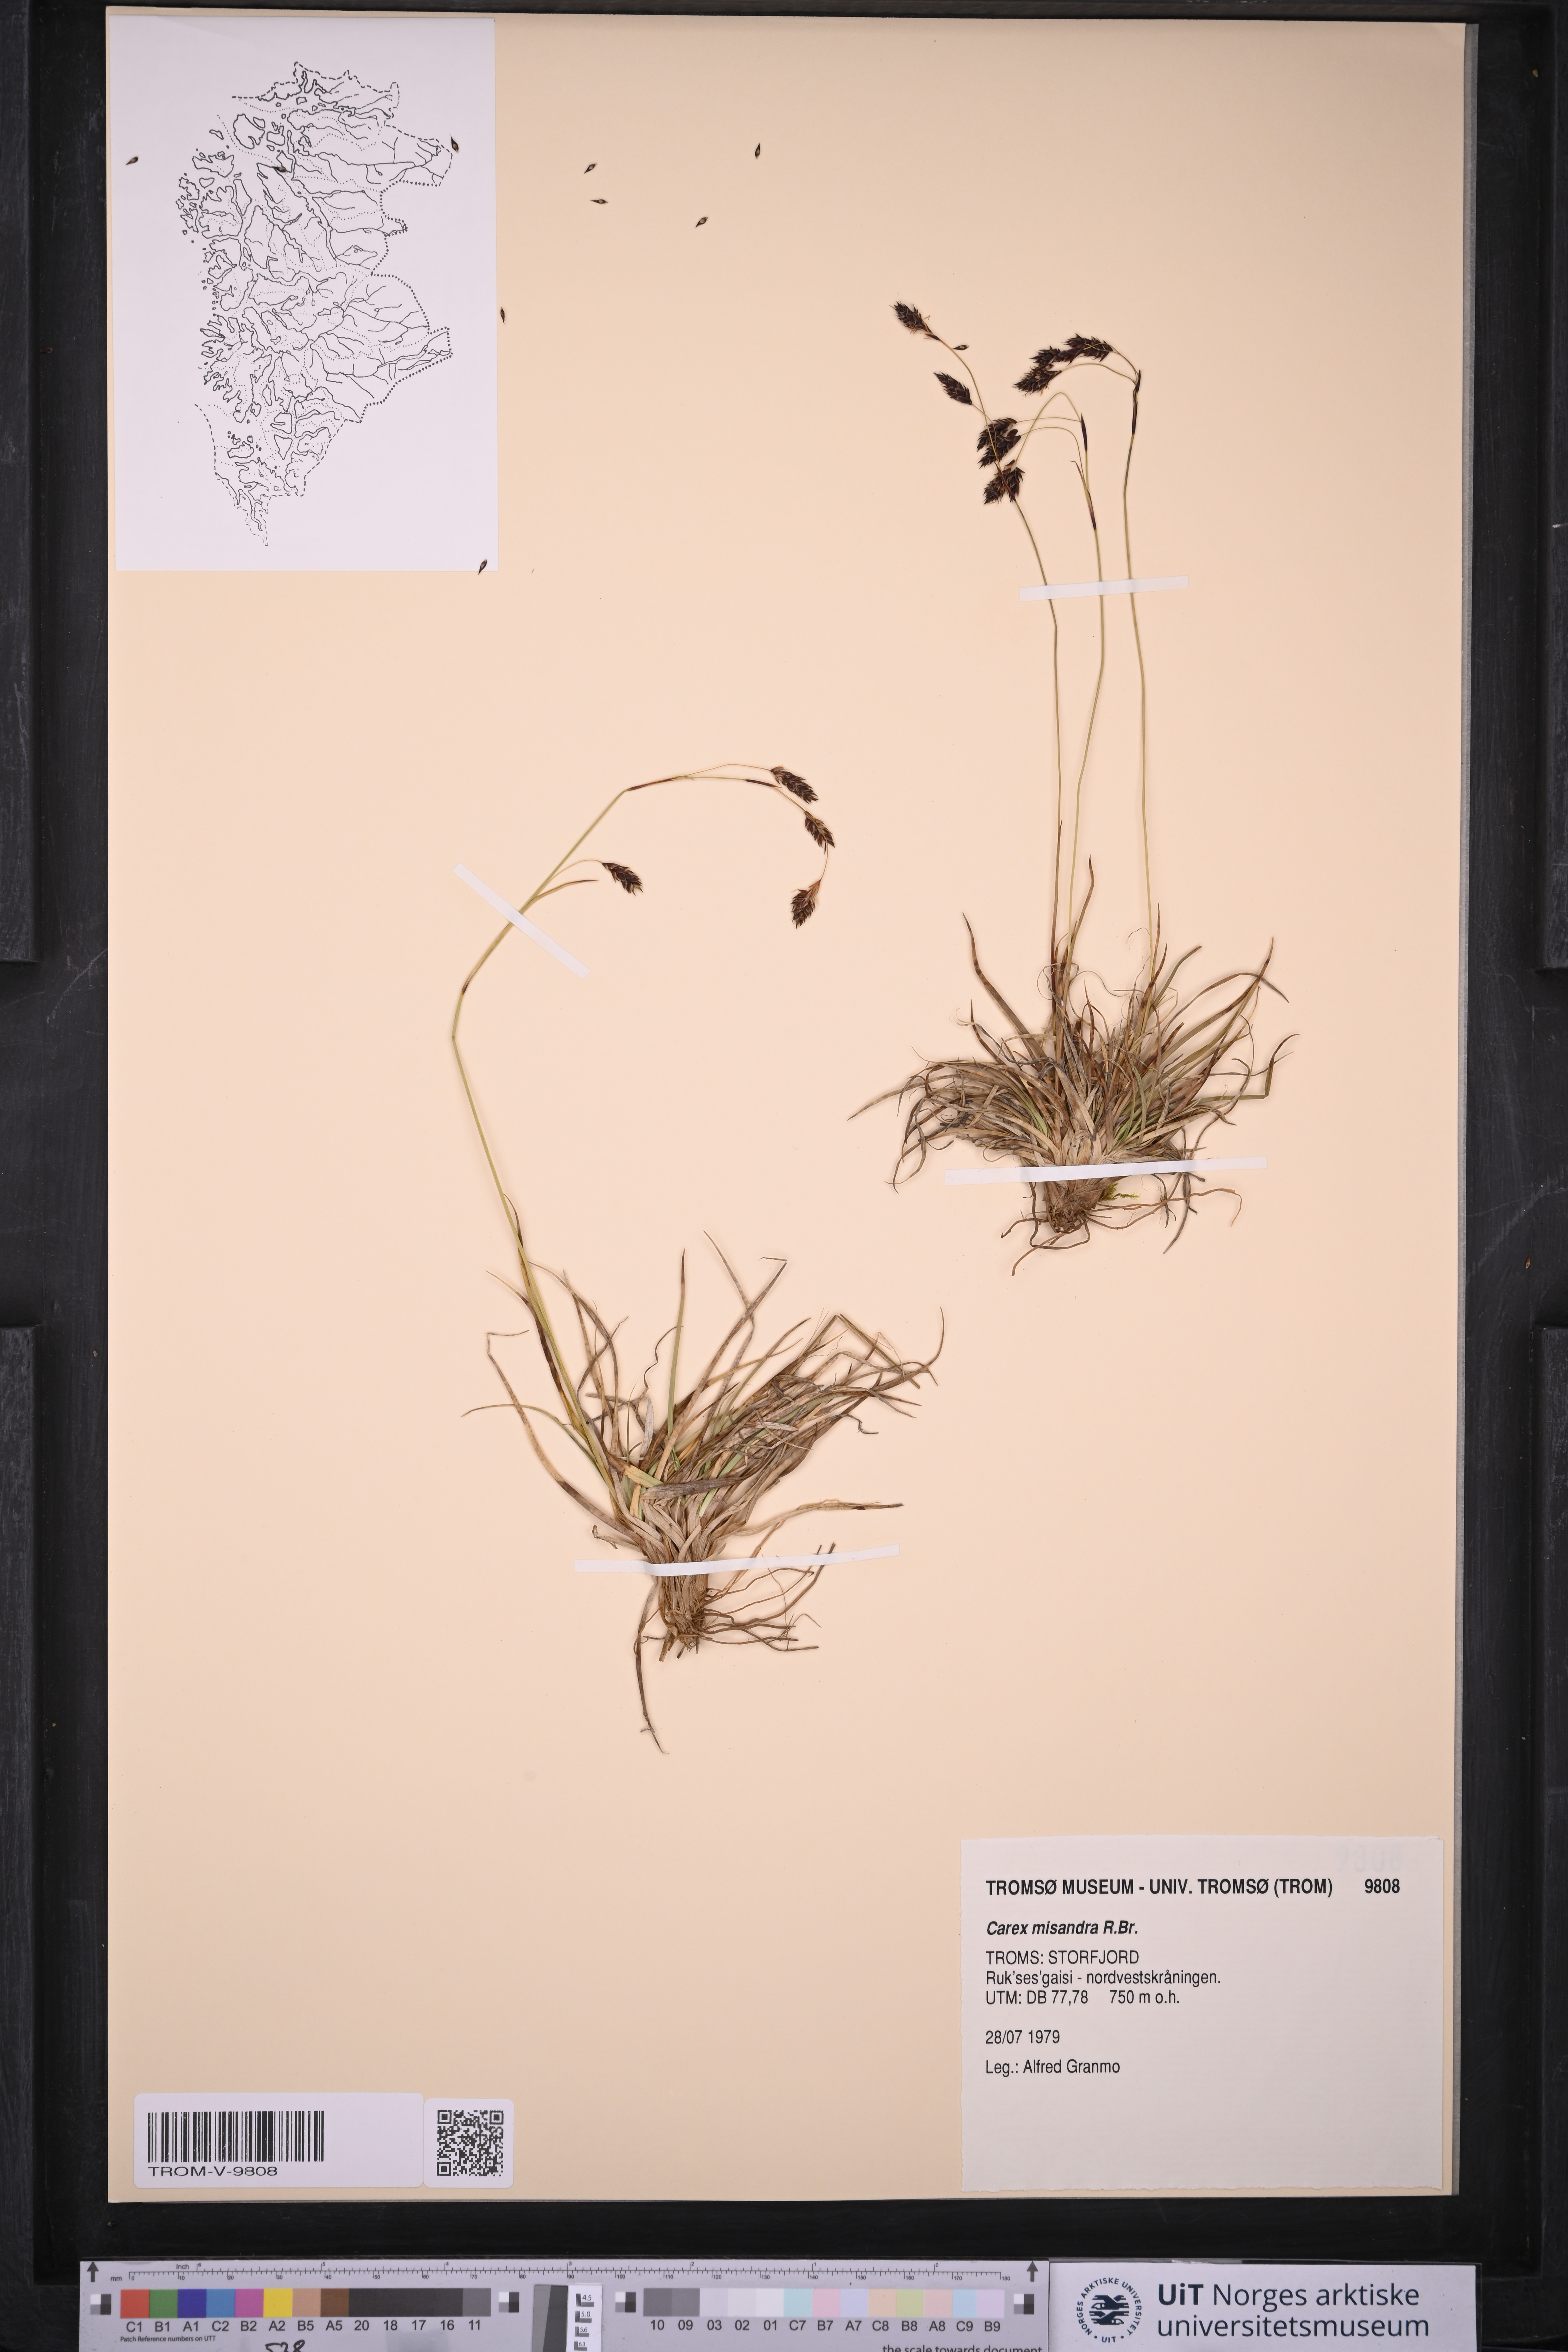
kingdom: Plantae
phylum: Tracheophyta
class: Liliopsida
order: Poales
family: Cyperaceae
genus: Carex
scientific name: Carex fuliginosa
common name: Few-flowered sedge
